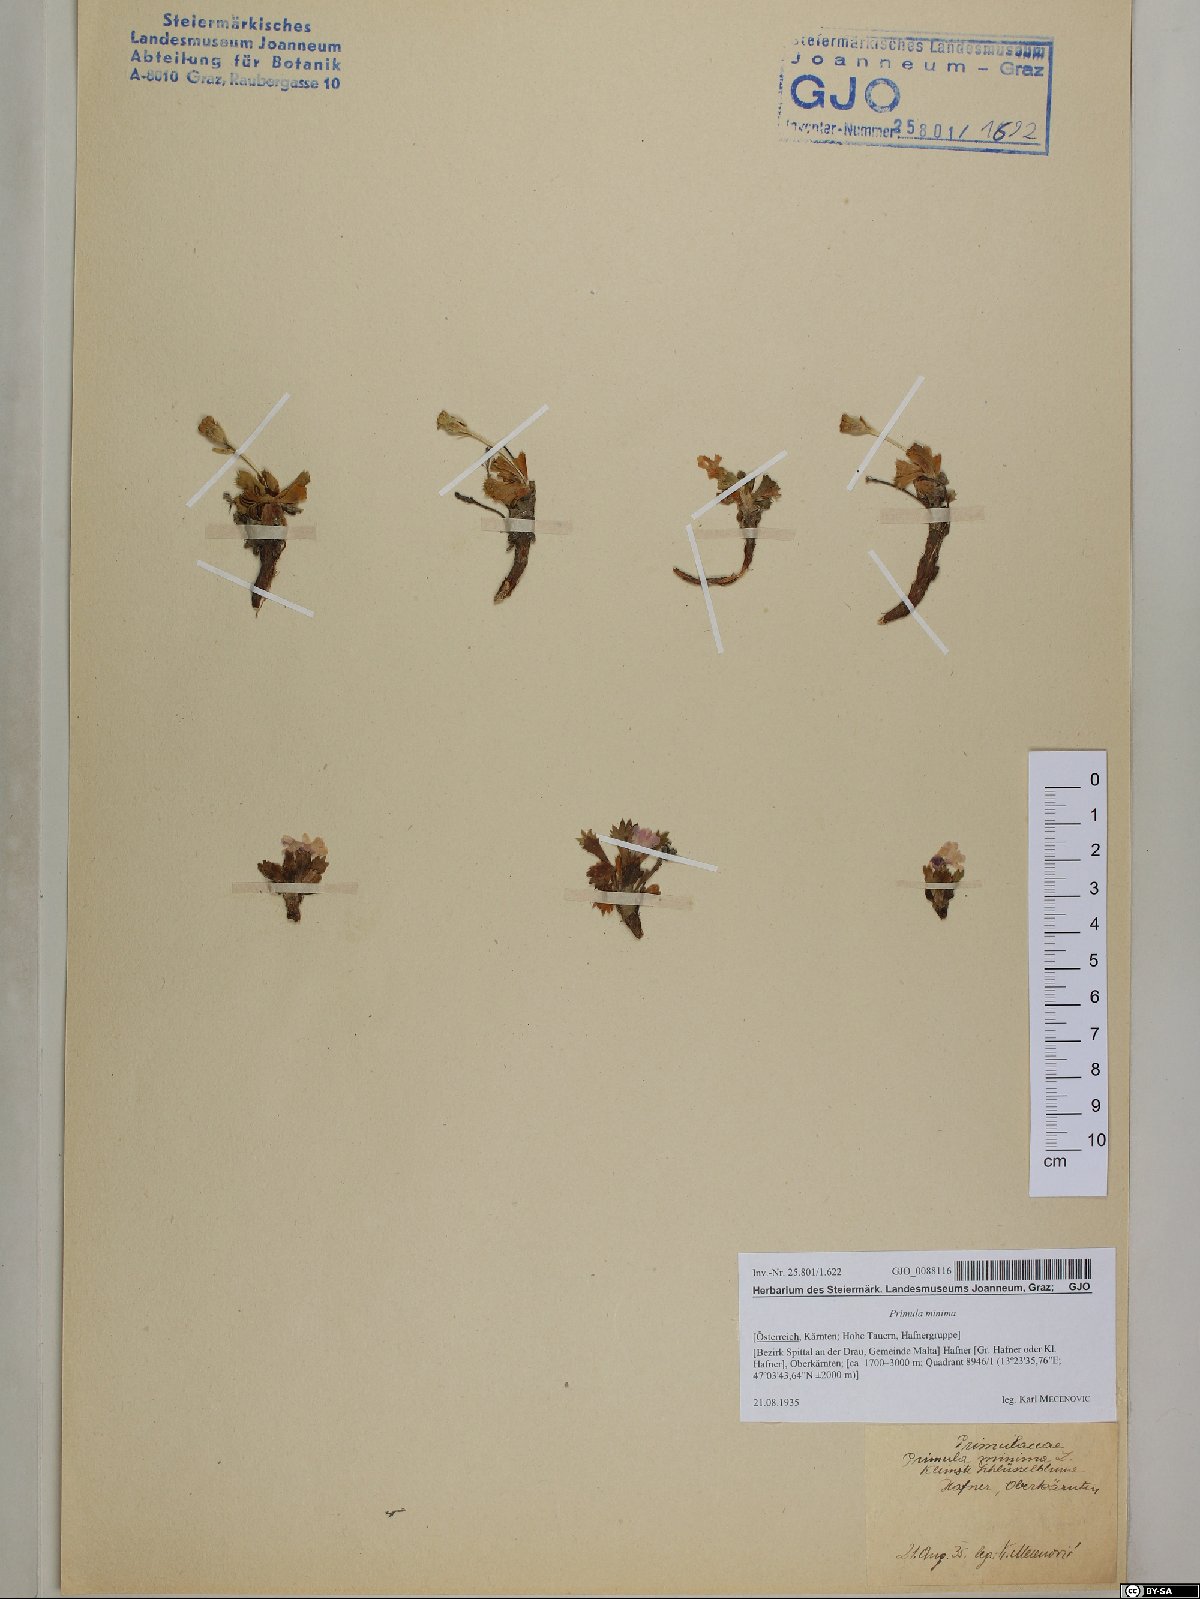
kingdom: Plantae
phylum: Tracheophyta
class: Magnoliopsida
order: Ericales
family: Primulaceae
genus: Primula
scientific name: Primula minima
